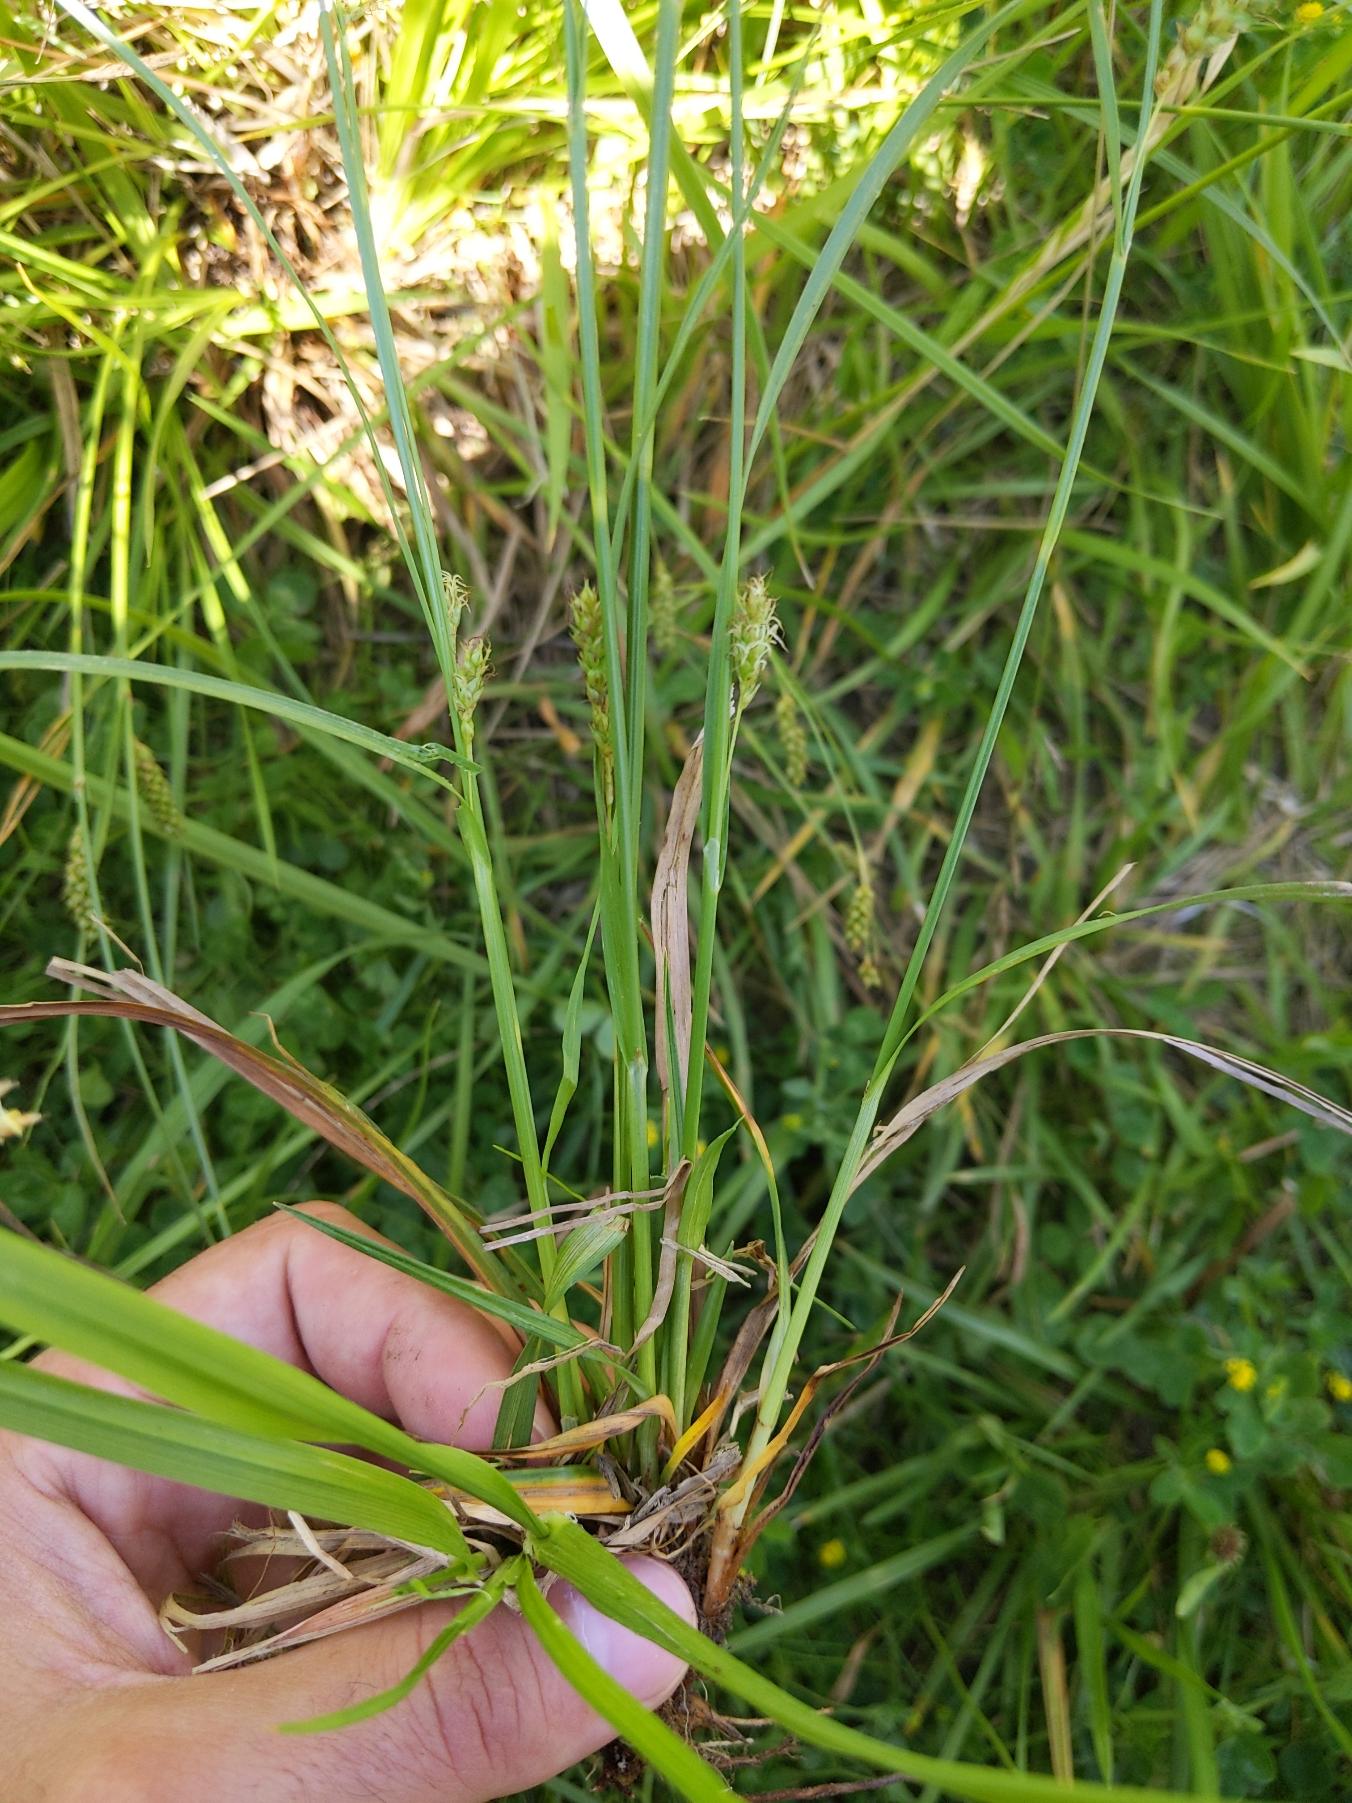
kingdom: Plantae
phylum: Tracheophyta
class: Liliopsida
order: Poales
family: Cyperaceae
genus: Carex
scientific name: Carex distans
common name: Fjernakset star
